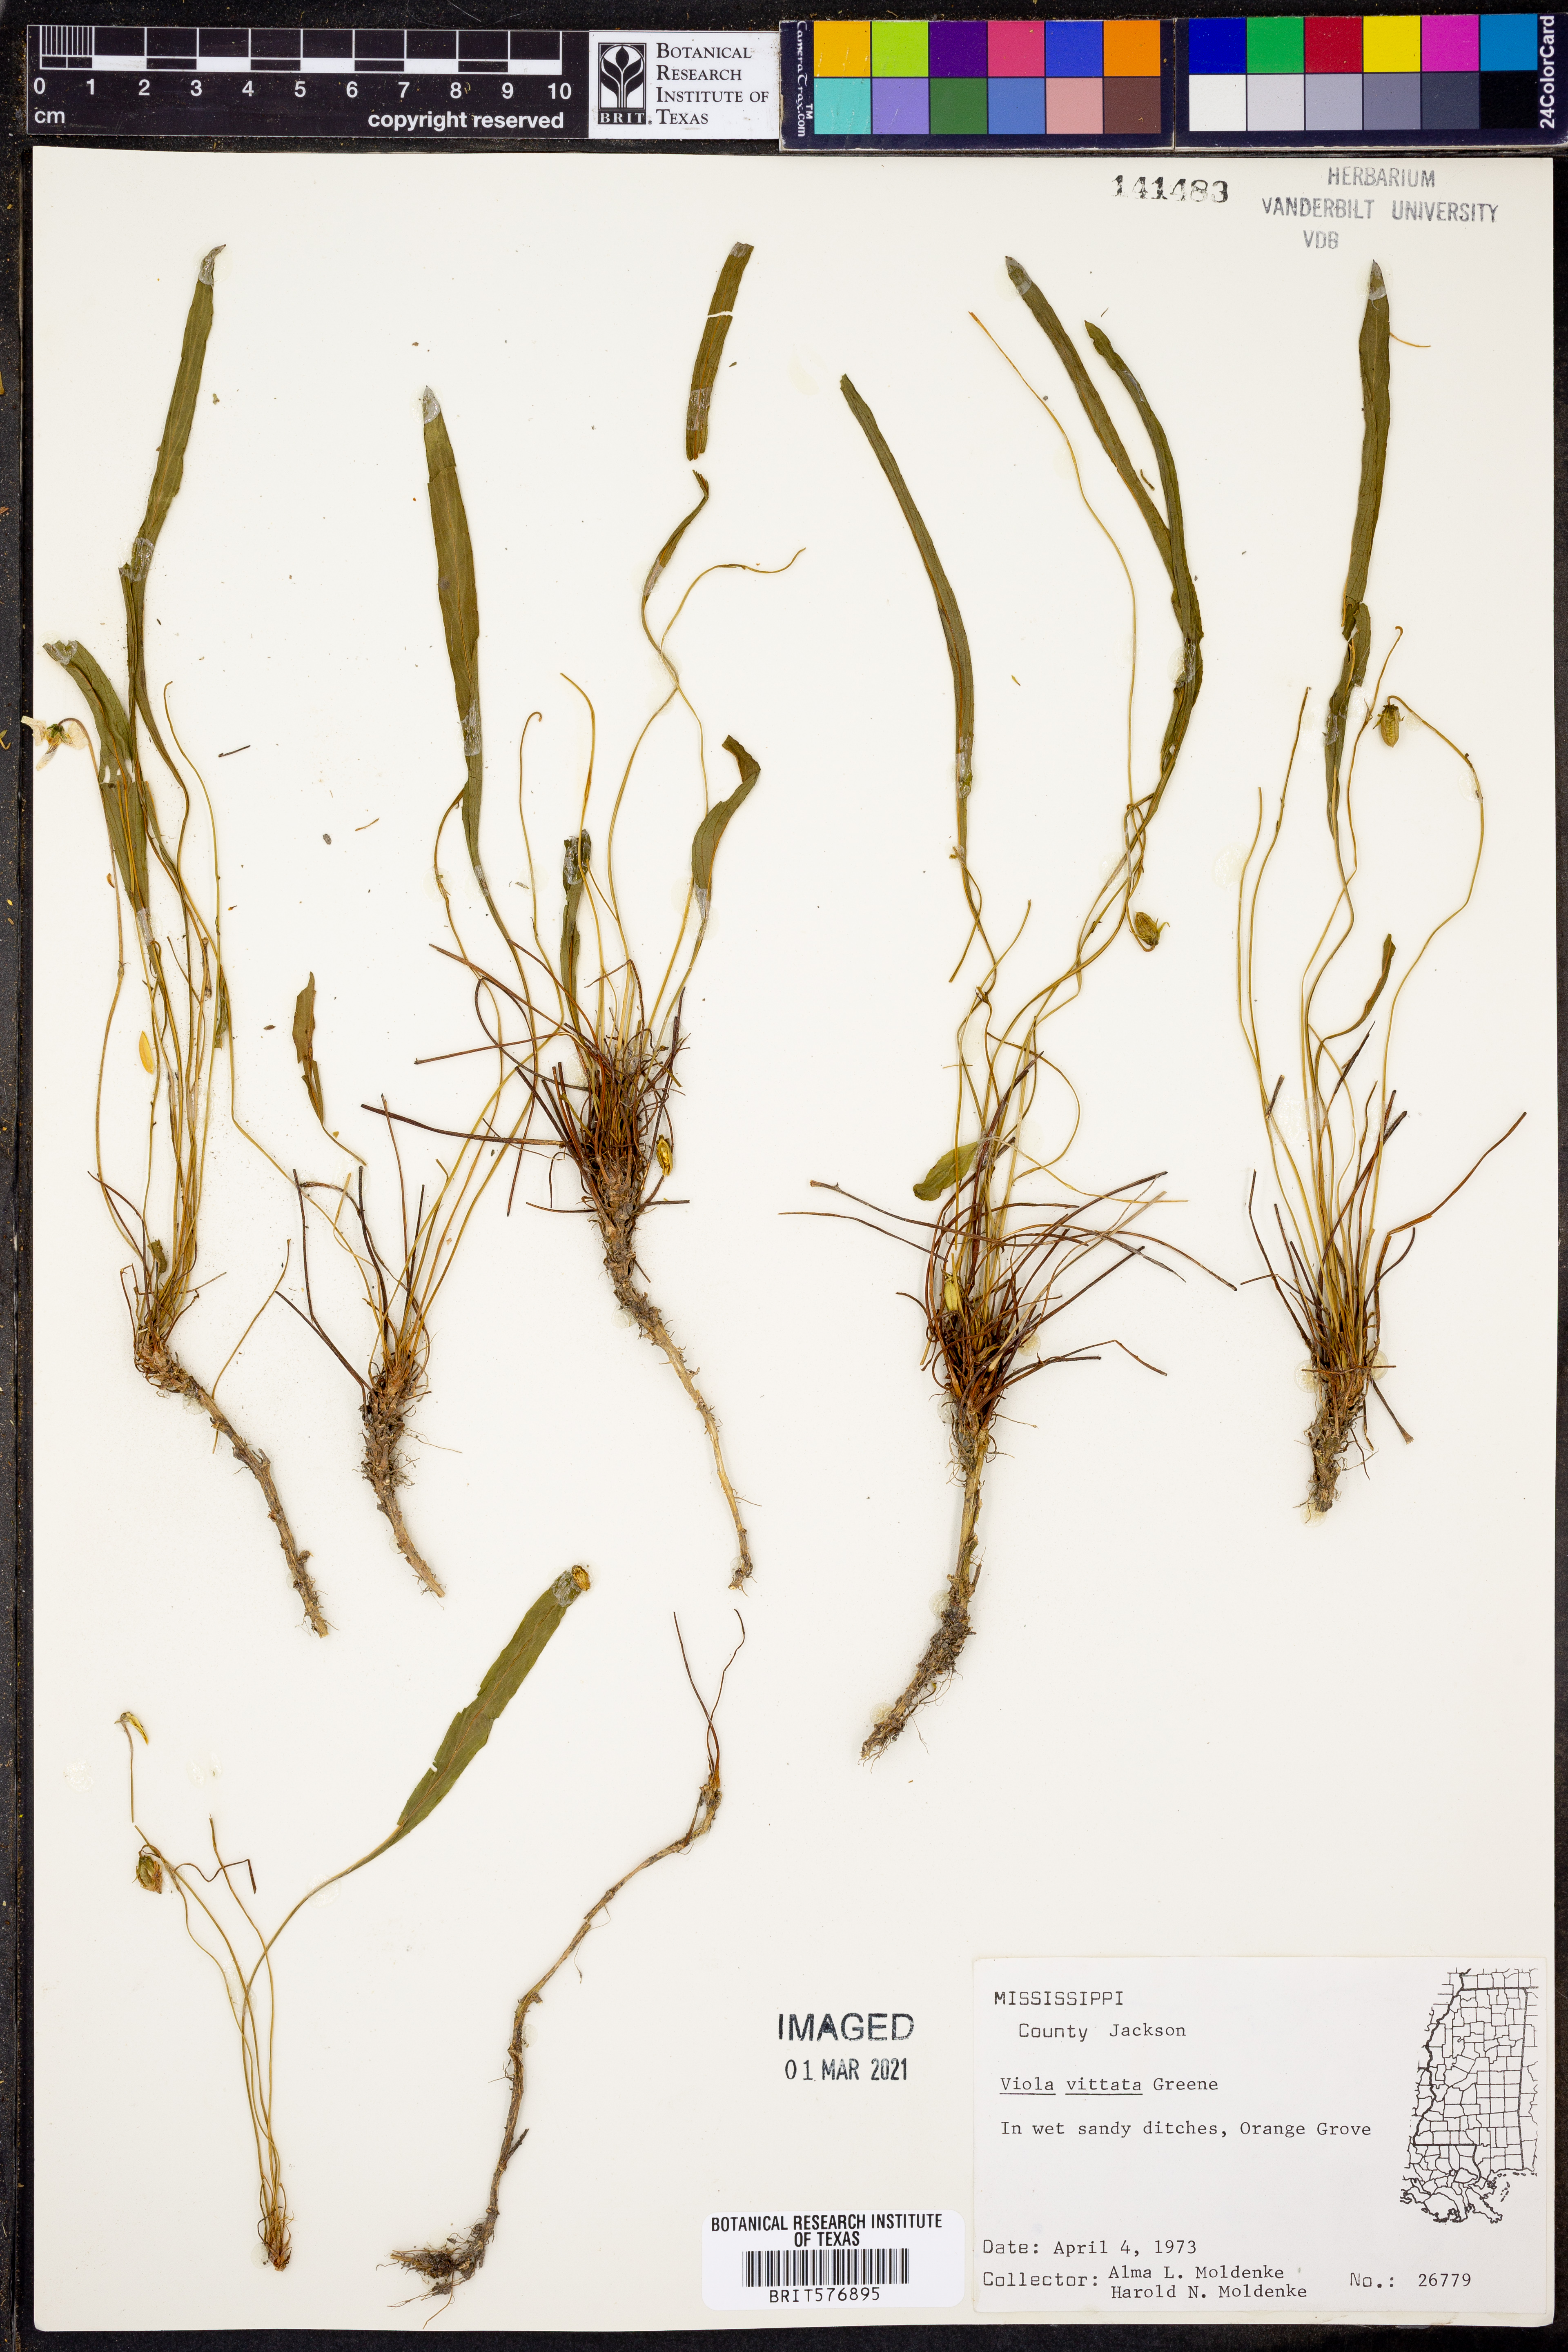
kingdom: Plantae
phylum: Tracheophyta
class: Magnoliopsida
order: Malpighiales
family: Violaceae
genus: Viola
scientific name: Viola vittata
